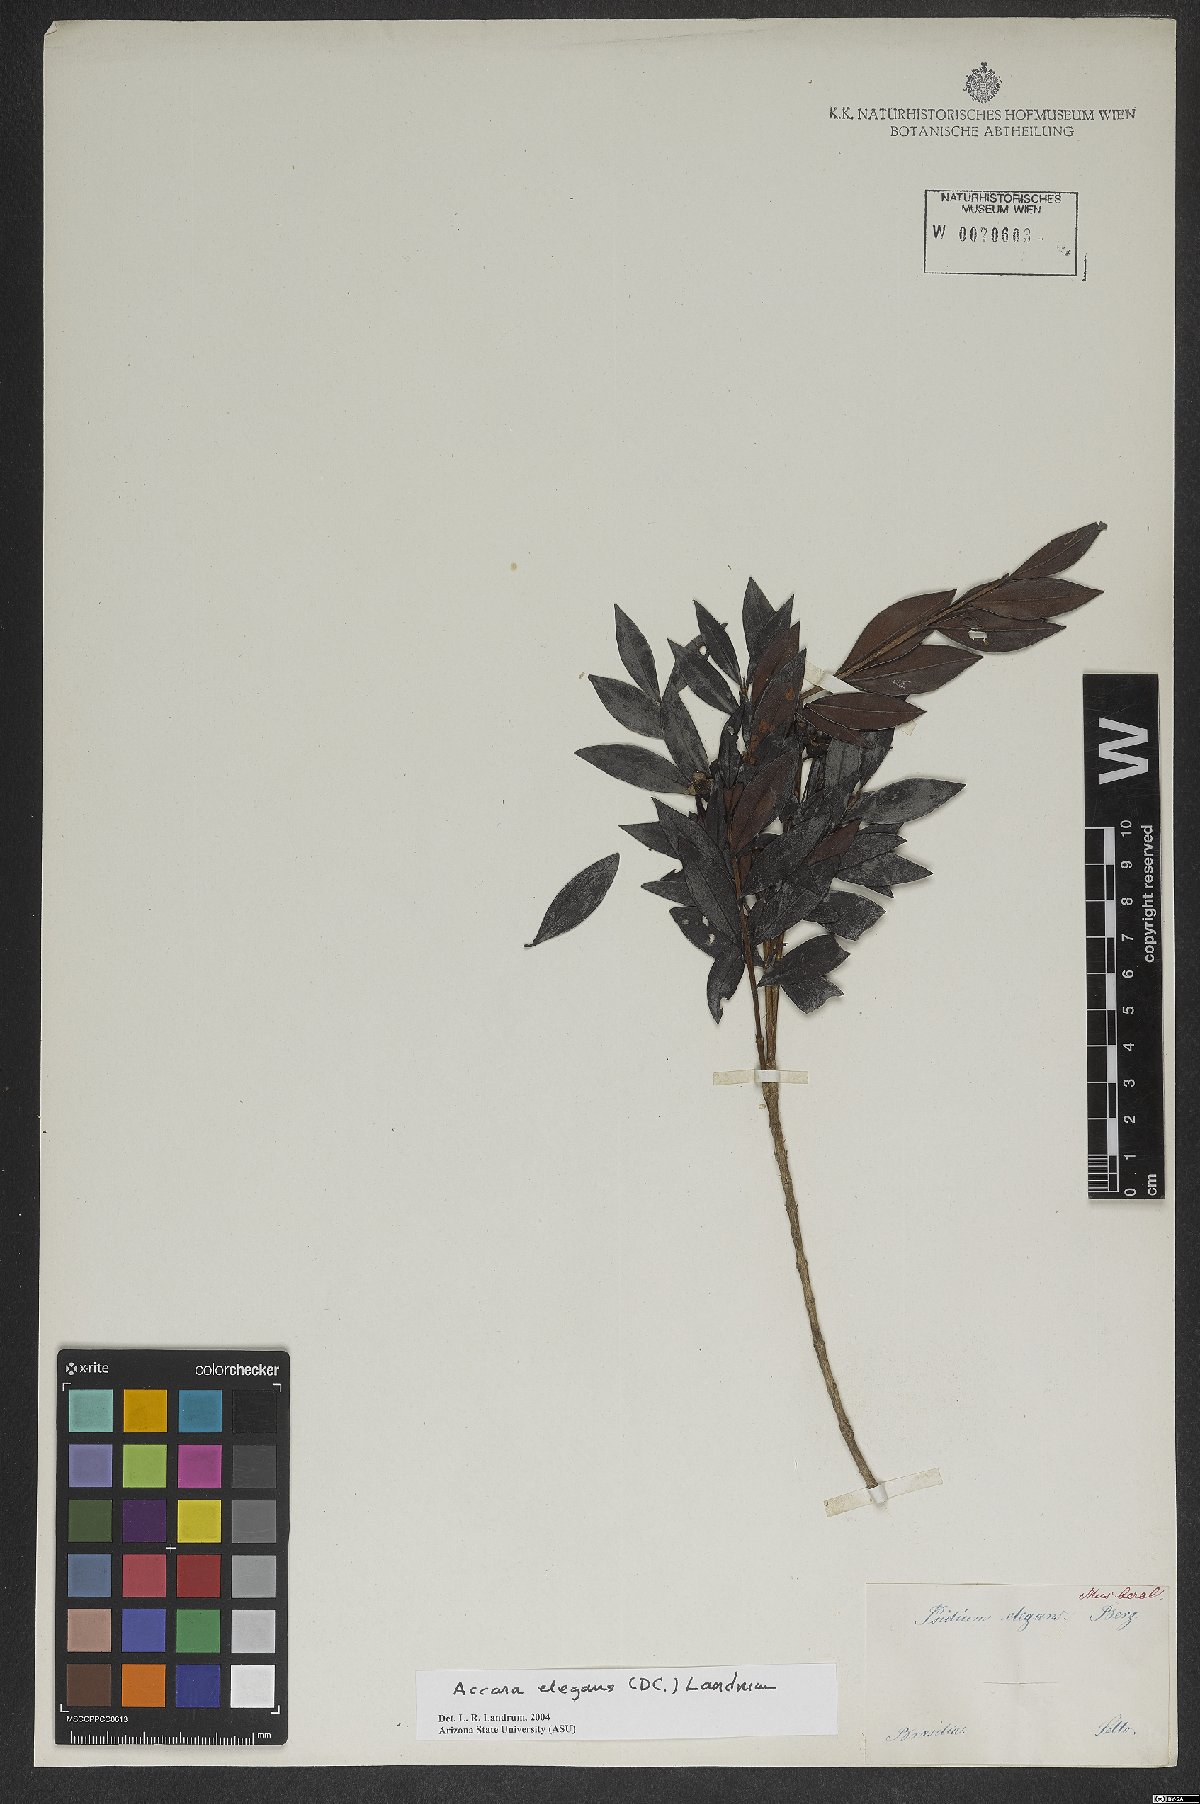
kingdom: Plantae
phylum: Tracheophyta
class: Magnoliopsida
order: Myrtales
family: Myrtaceae
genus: Accara
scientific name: Accara elegans
